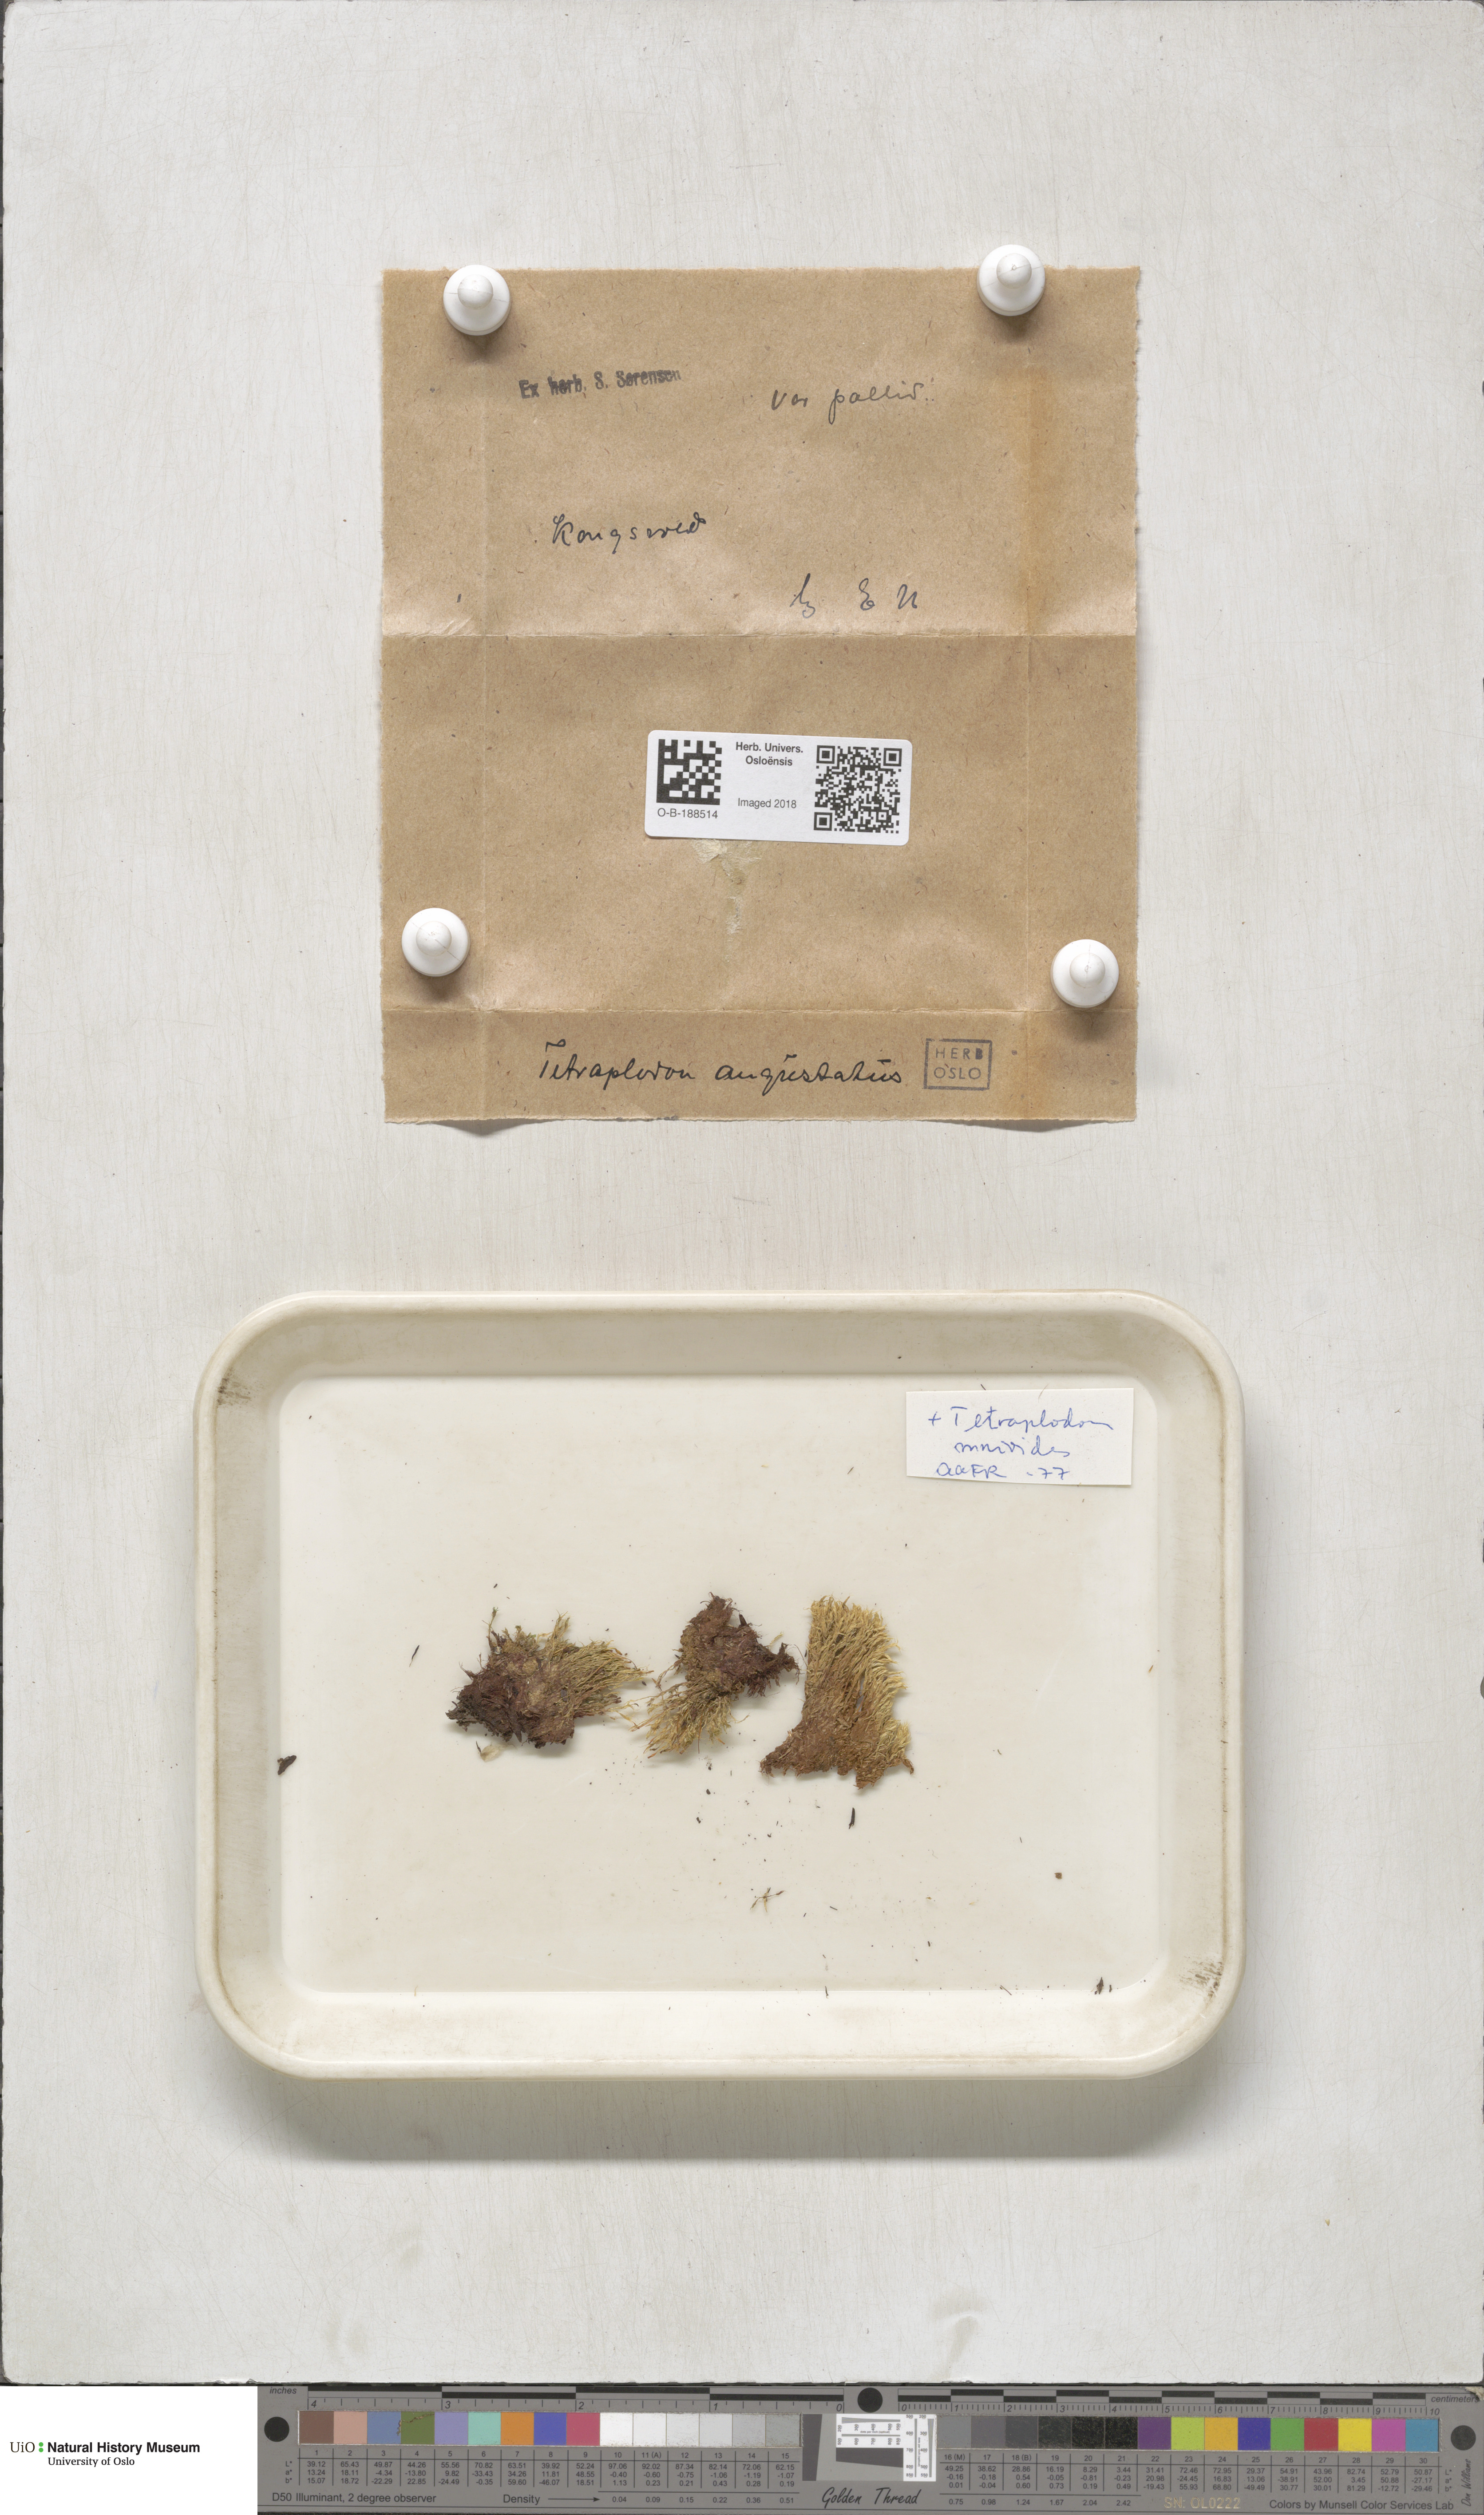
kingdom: Plantae
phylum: Bryophyta
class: Bryopsida
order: Splachnales
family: Splachnaceae
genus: Tetraplodon
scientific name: Tetraplodon angustatus
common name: Narrow cruet-moss
